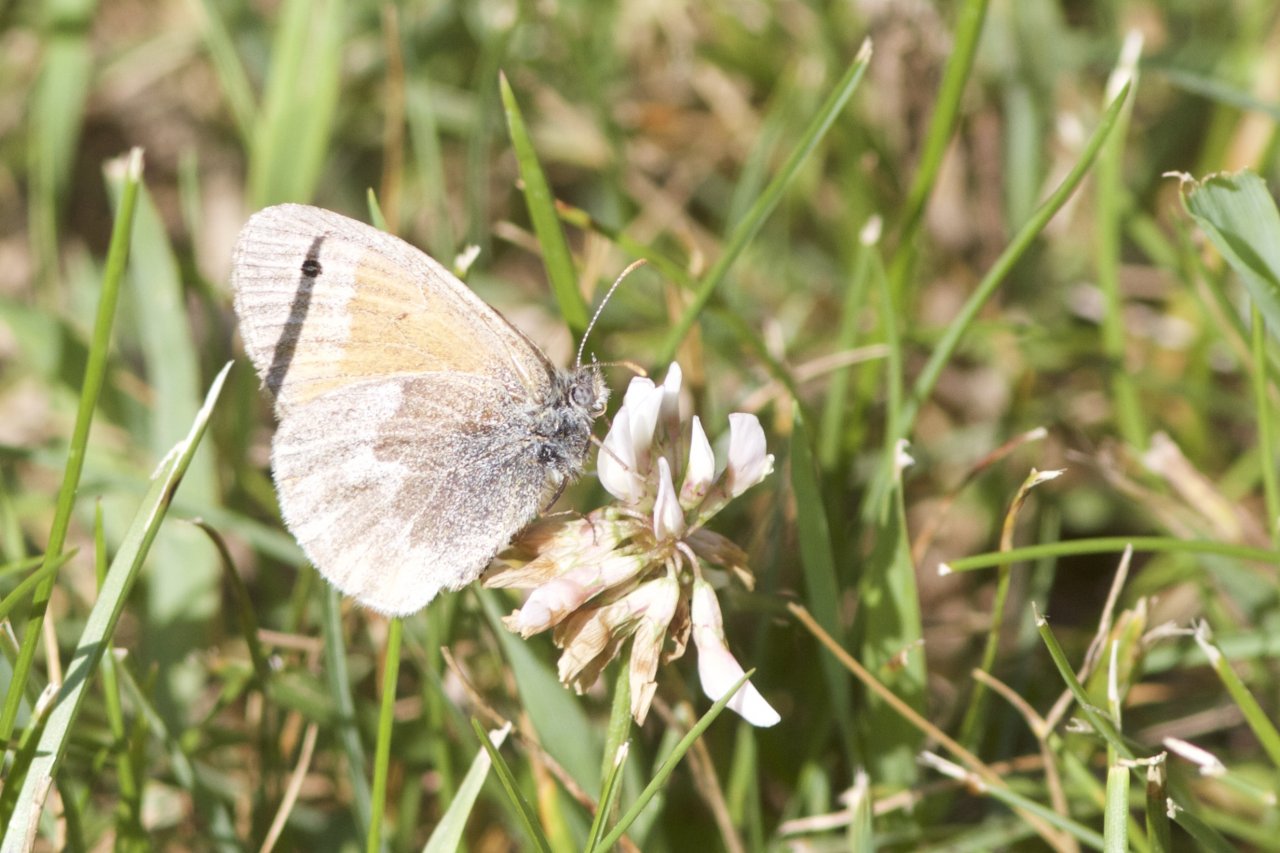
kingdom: Animalia
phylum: Arthropoda
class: Insecta
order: Lepidoptera
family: Nymphalidae
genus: Coenonympha
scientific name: Coenonympha tullia
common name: Large Heath
